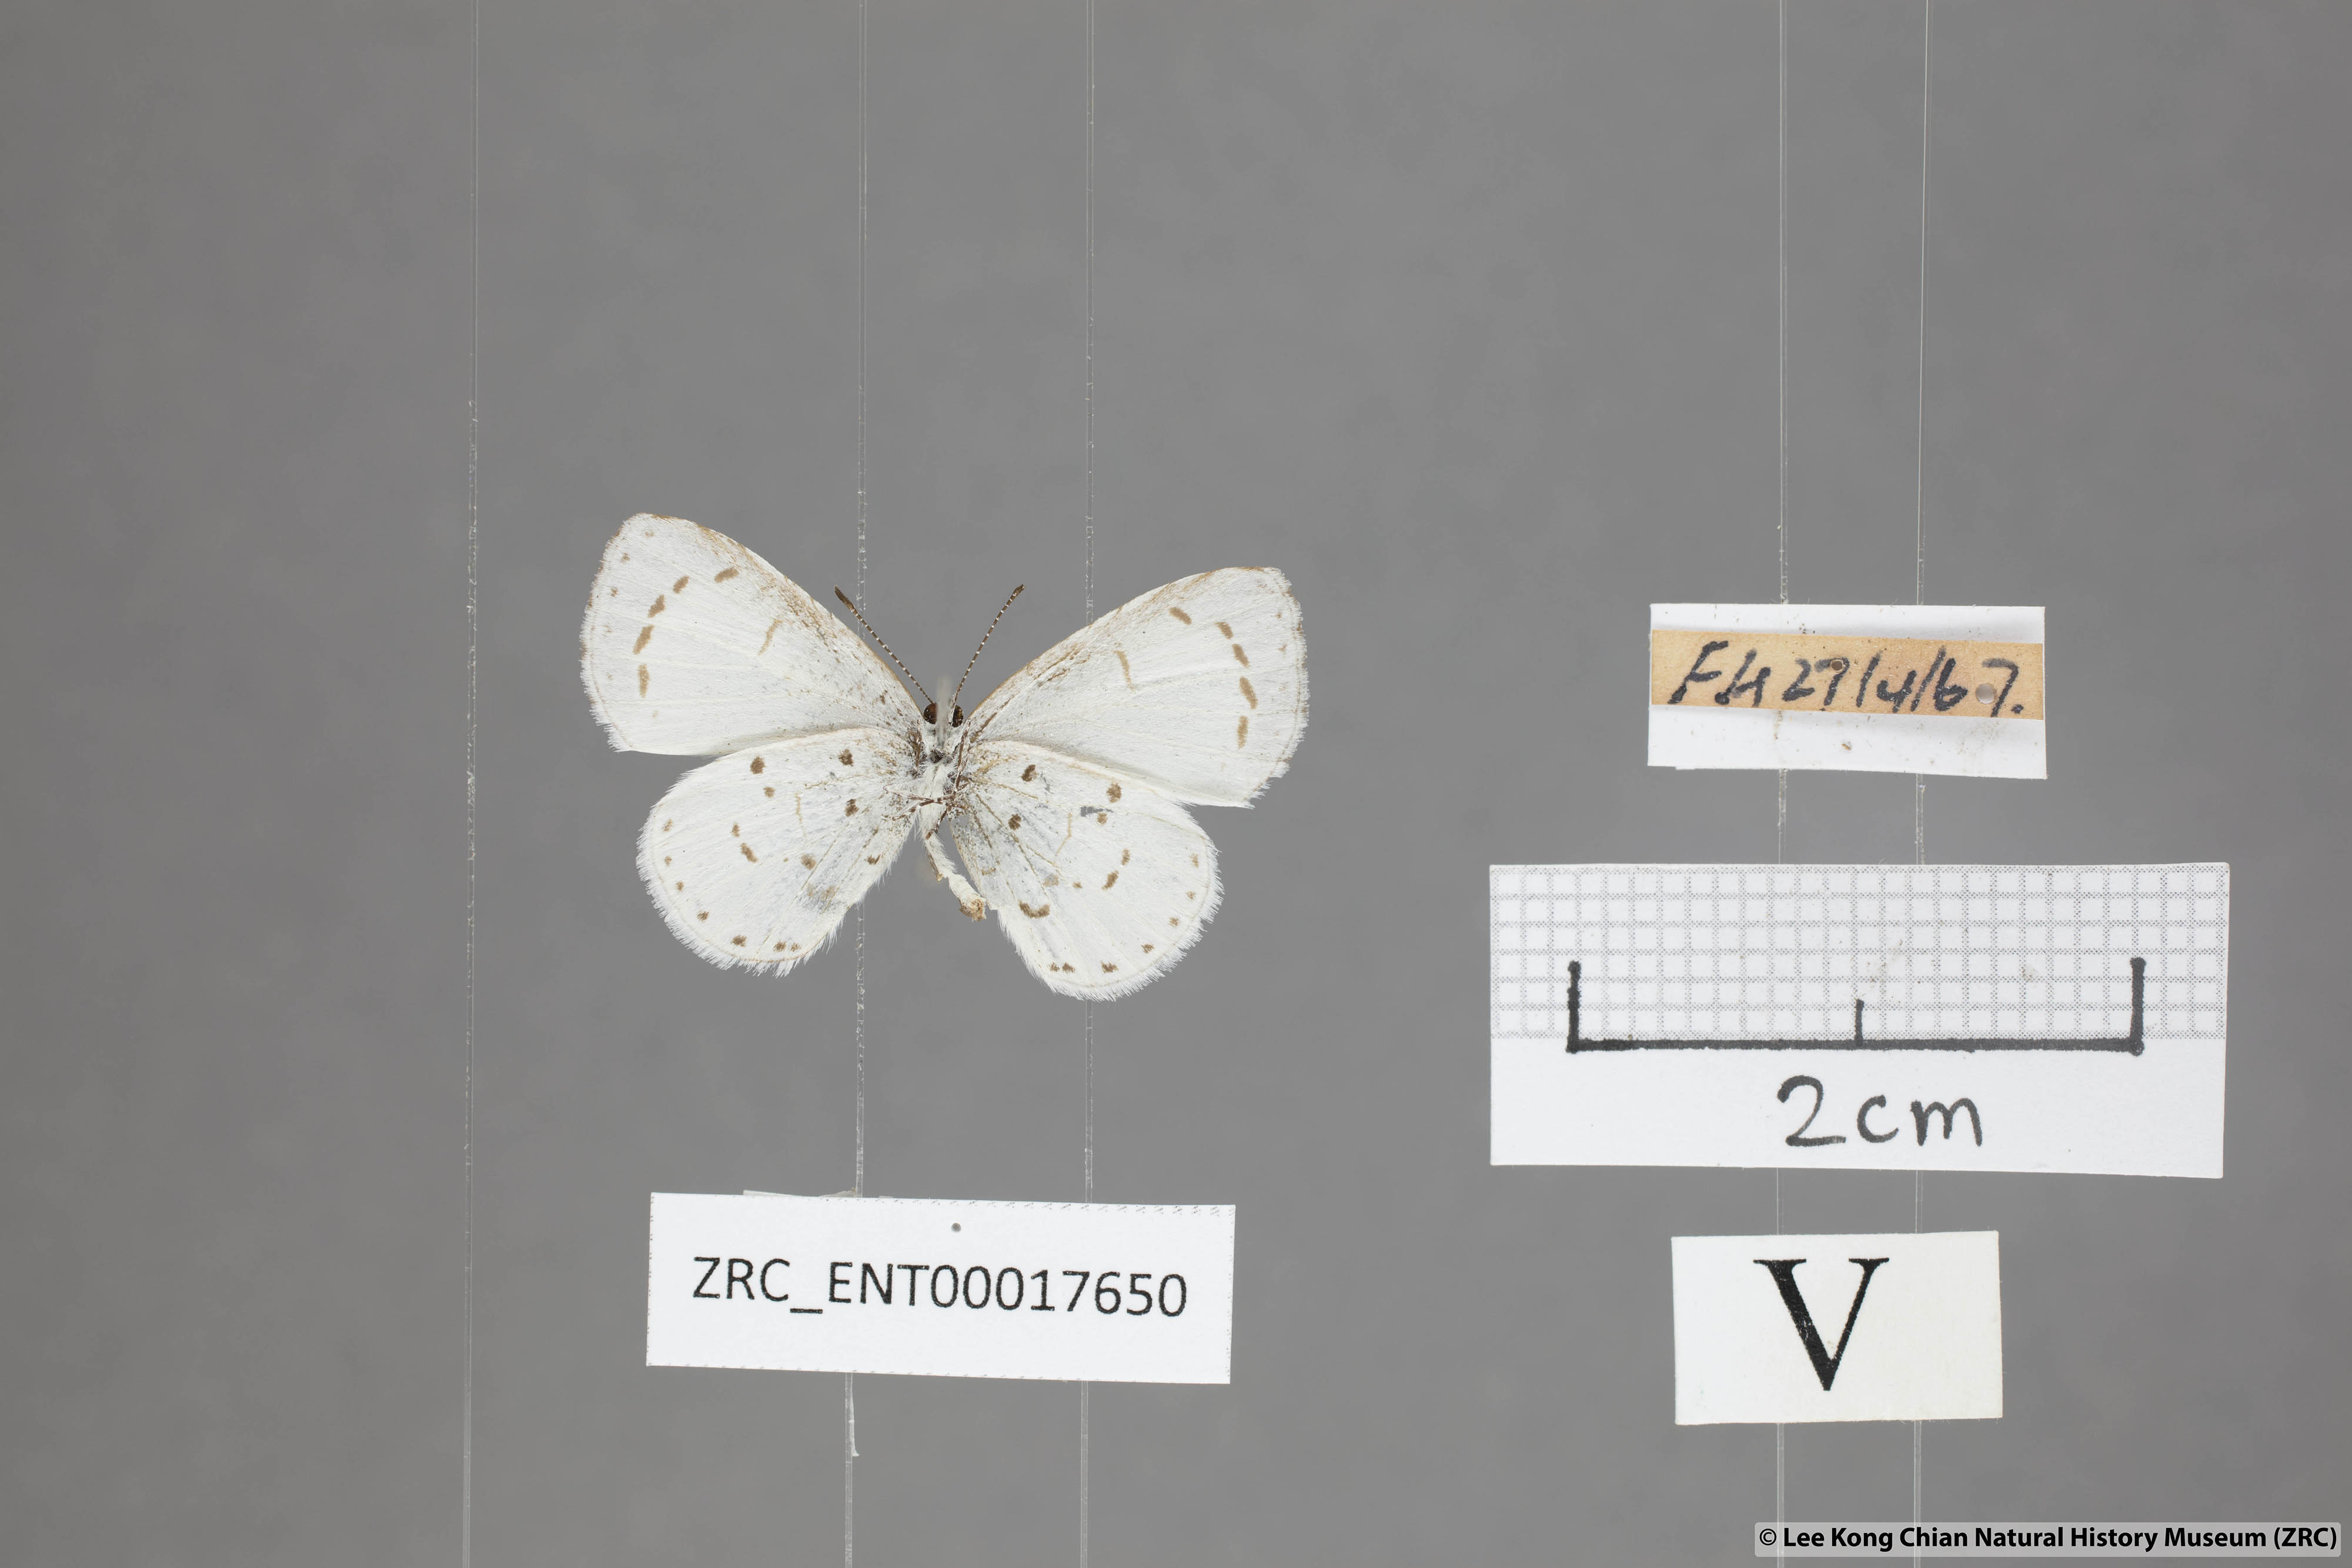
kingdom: Animalia
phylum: Arthropoda
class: Insecta
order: Lepidoptera
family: Lycaenidae
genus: Udara
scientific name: Udara akasa
